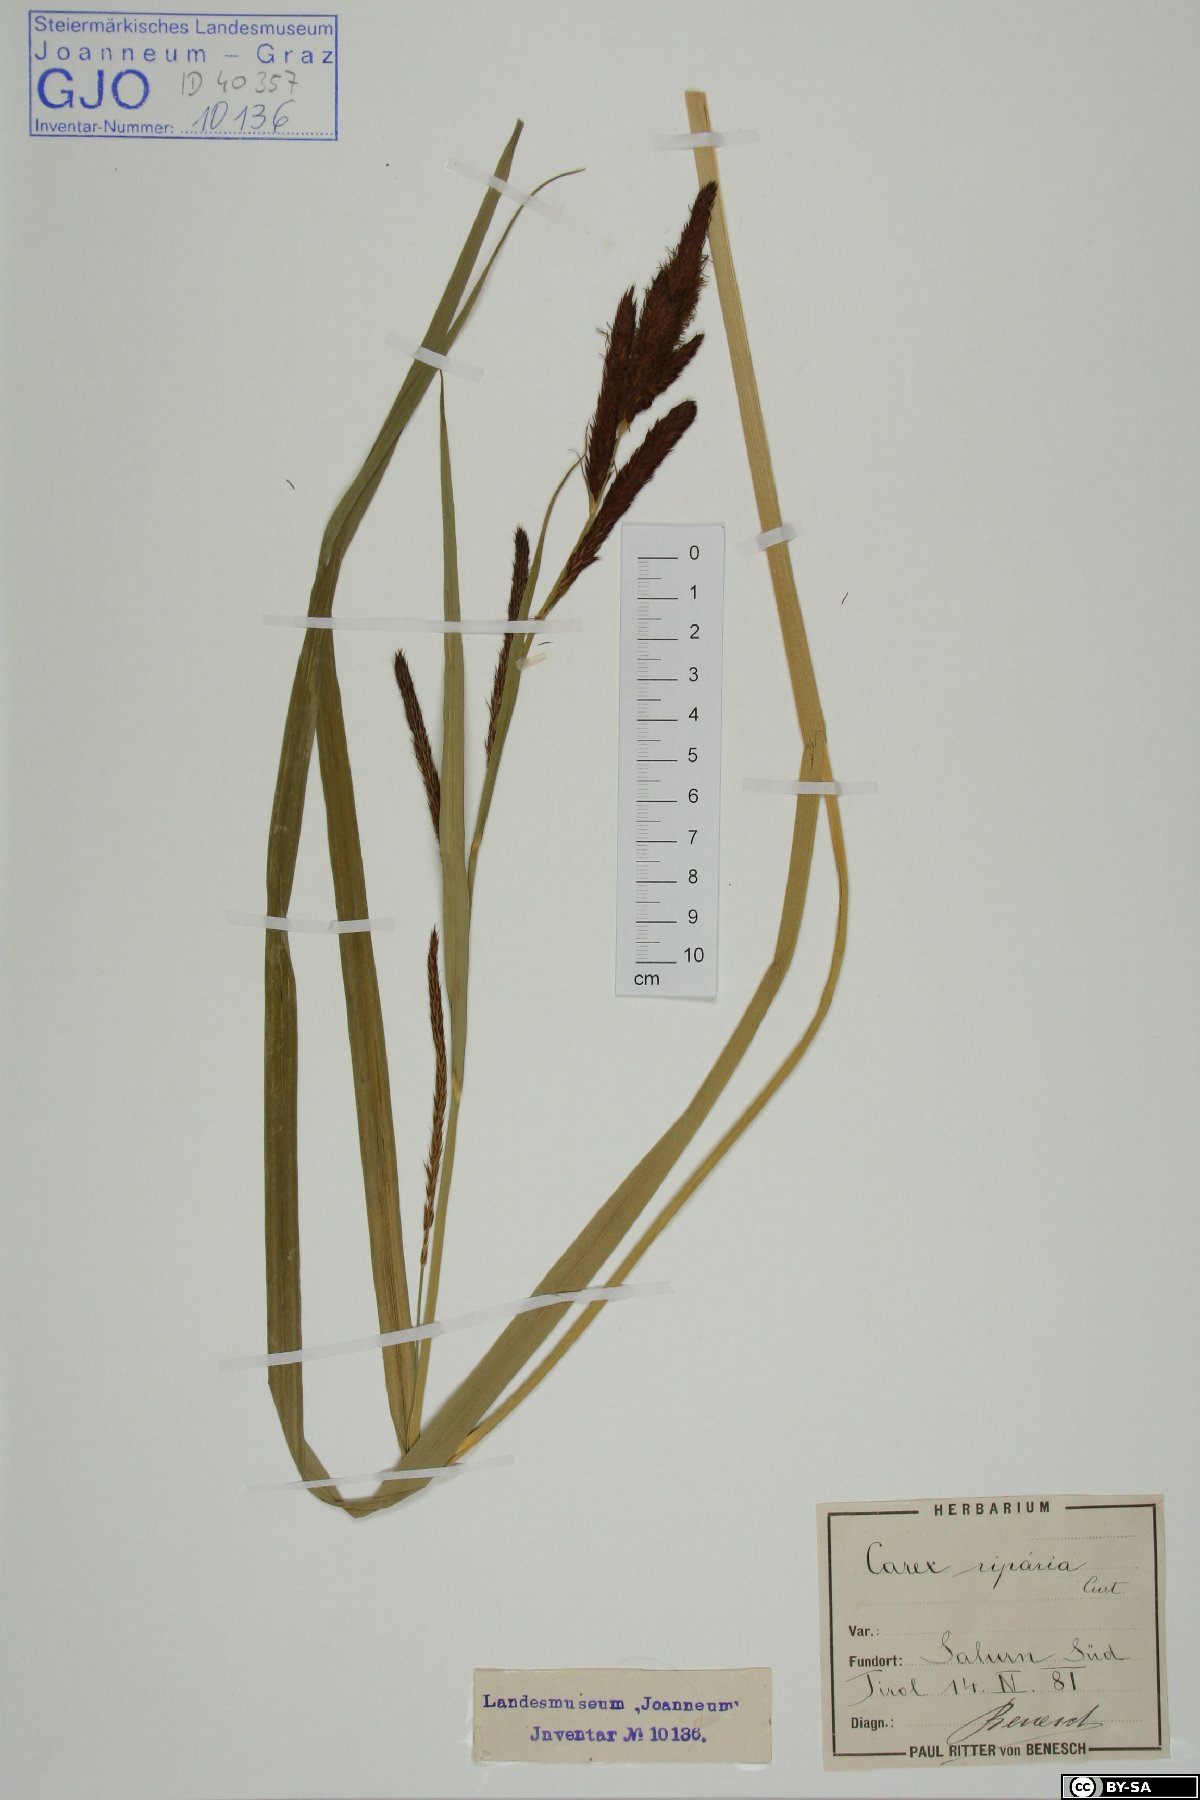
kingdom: Plantae
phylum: Tracheophyta
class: Liliopsida
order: Poales
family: Cyperaceae
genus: Carex
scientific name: Carex riparia
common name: Greater pond-sedge
